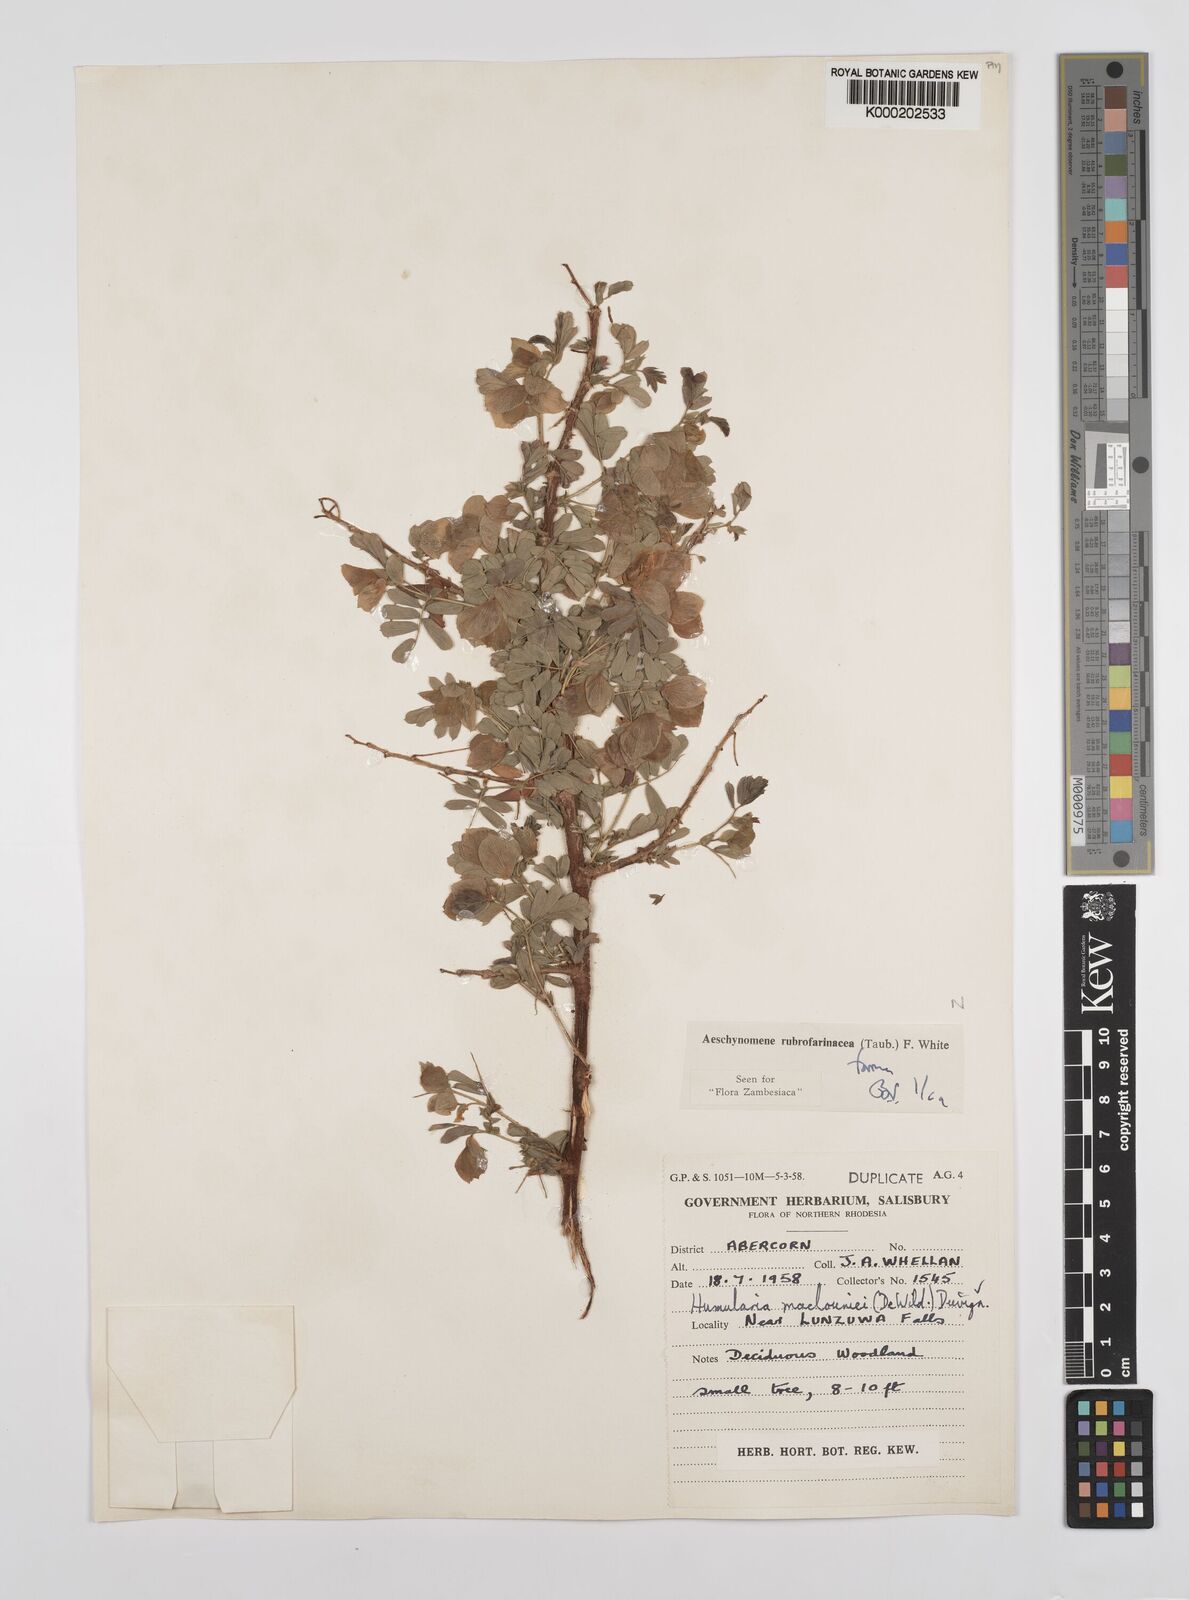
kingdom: Plantae
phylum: Tracheophyta
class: Magnoliopsida
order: Fabales
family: Fabaceae
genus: Aeschynomene
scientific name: Aeschynomene rubrofarinacea
